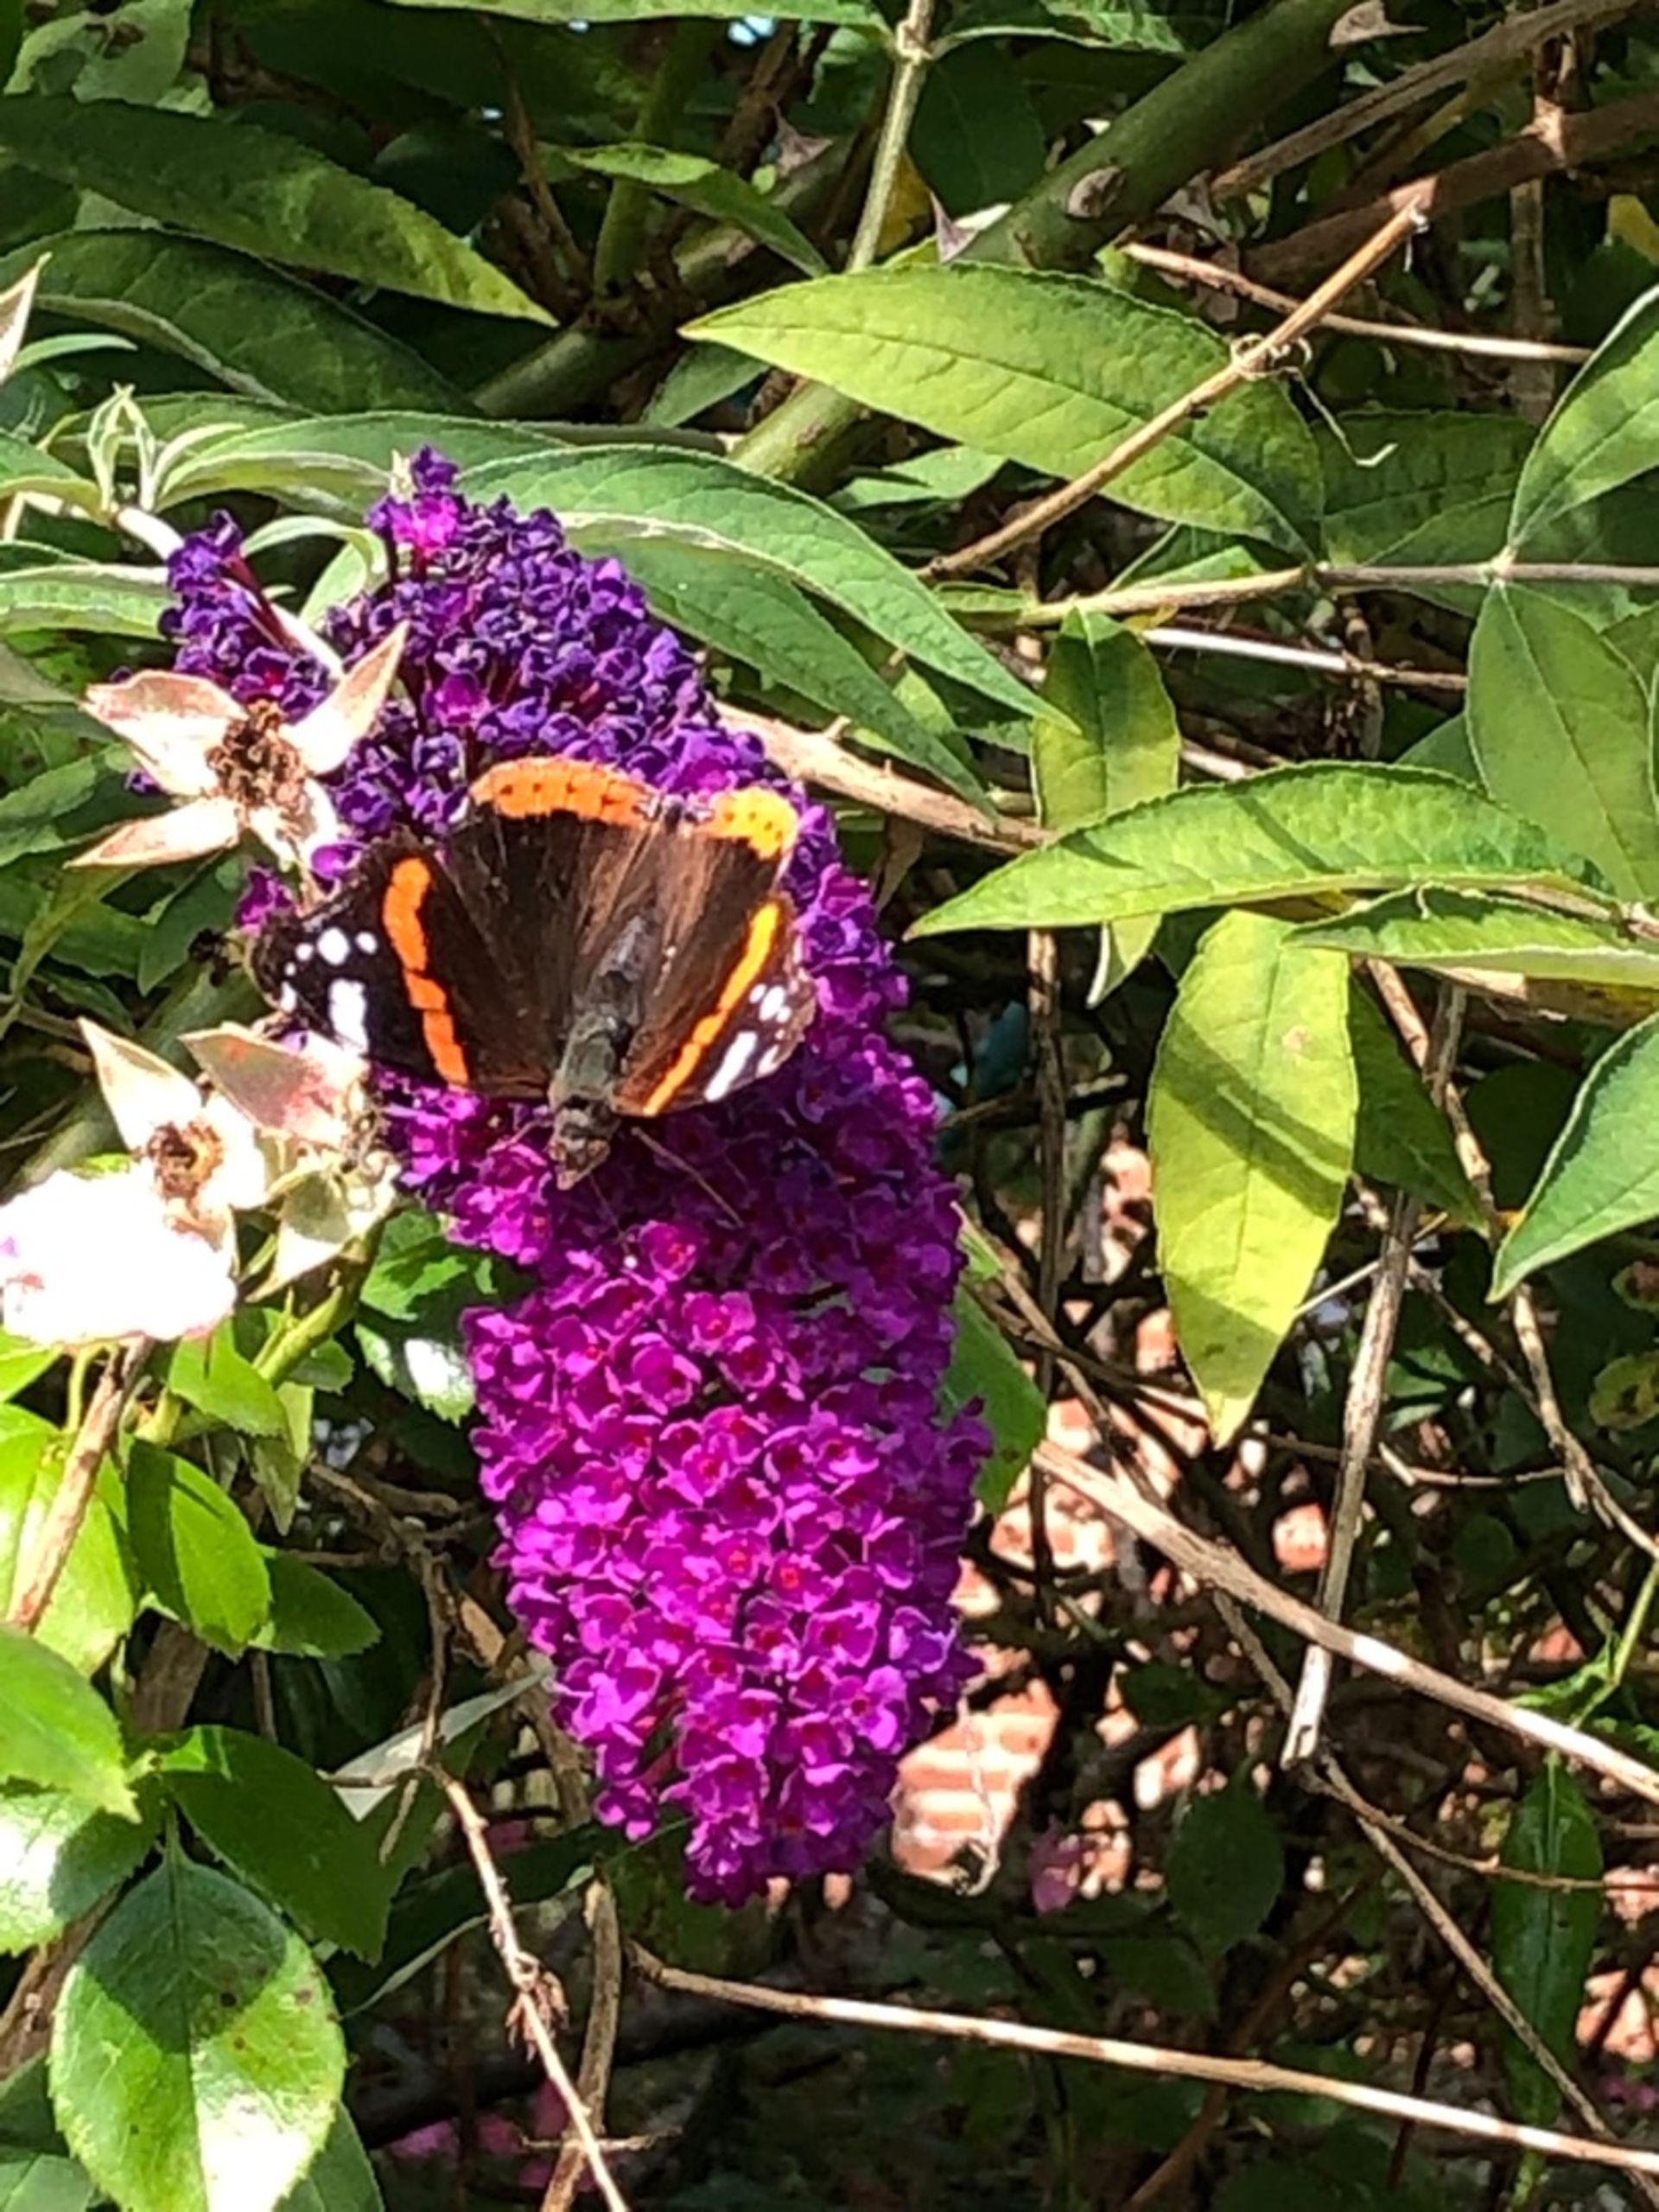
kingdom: Animalia
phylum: Arthropoda
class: Insecta
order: Lepidoptera
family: Nymphalidae
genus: Vanessa
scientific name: Vanessa atalanta
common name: Admiral
